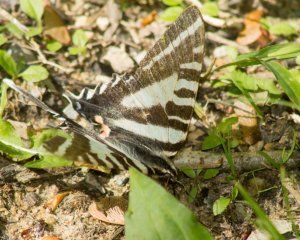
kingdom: Animalia
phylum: Arthropoda
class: Insecta
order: Lepidoptera
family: Papilionidae
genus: Protographium
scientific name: Protographium marcellus
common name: Zebra Swallowtail
